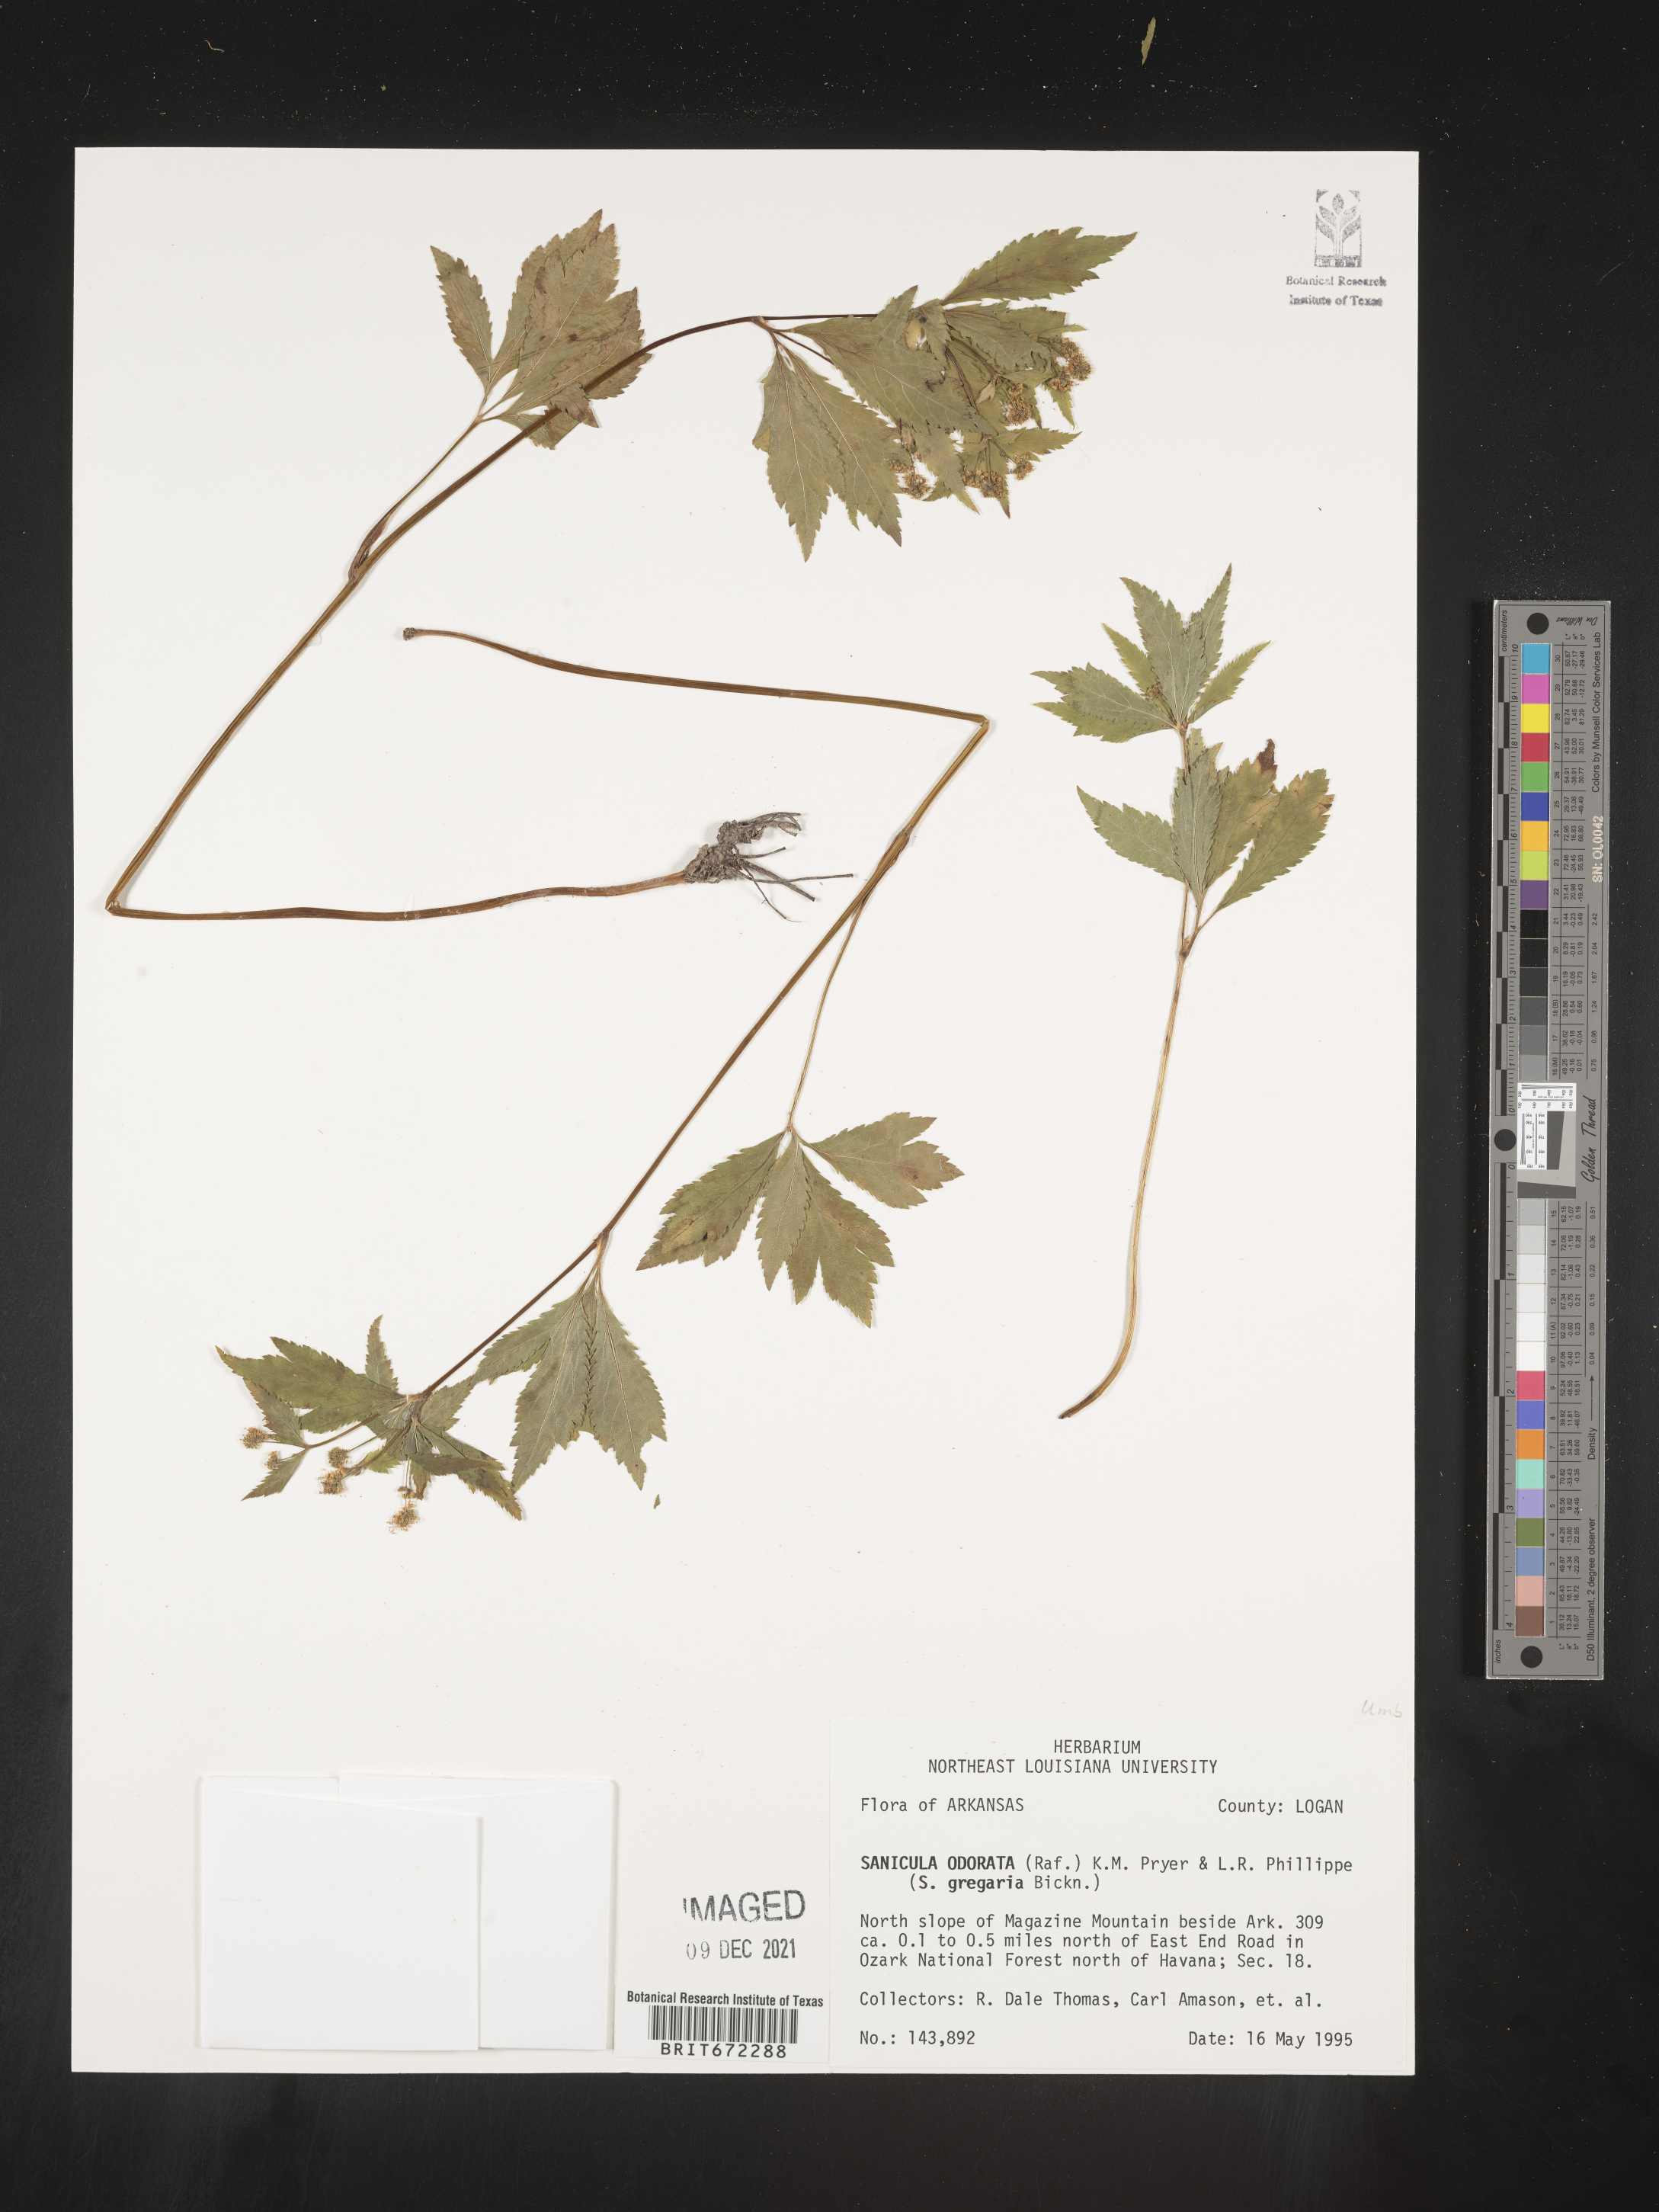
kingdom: Plantae
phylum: Tracheophyta
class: Magnoliopsida
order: Apiales
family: Apiaceae
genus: Sanicula
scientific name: Sanicula
